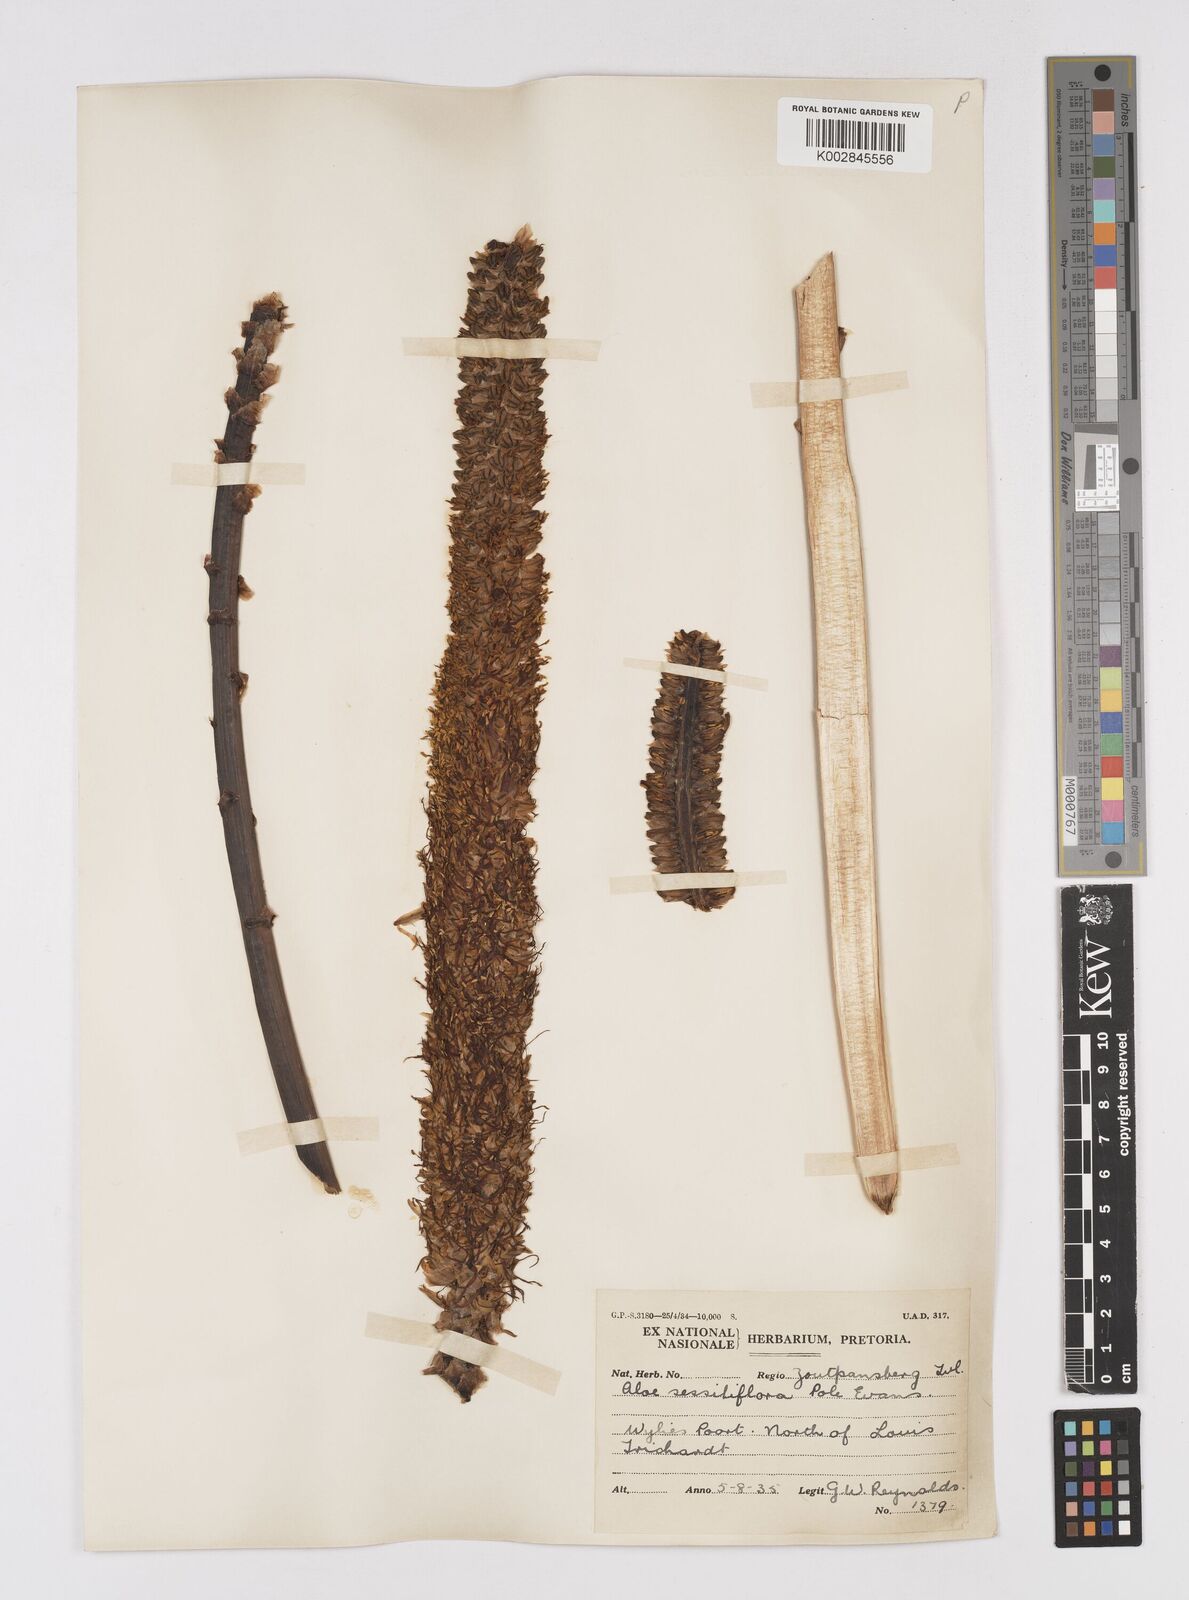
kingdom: Plantae
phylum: Tracheophyta
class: Liliopsida
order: Asparagales
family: Asphodelaceae
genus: Aloe
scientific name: Aloe spicata
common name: Gazaland aloe
